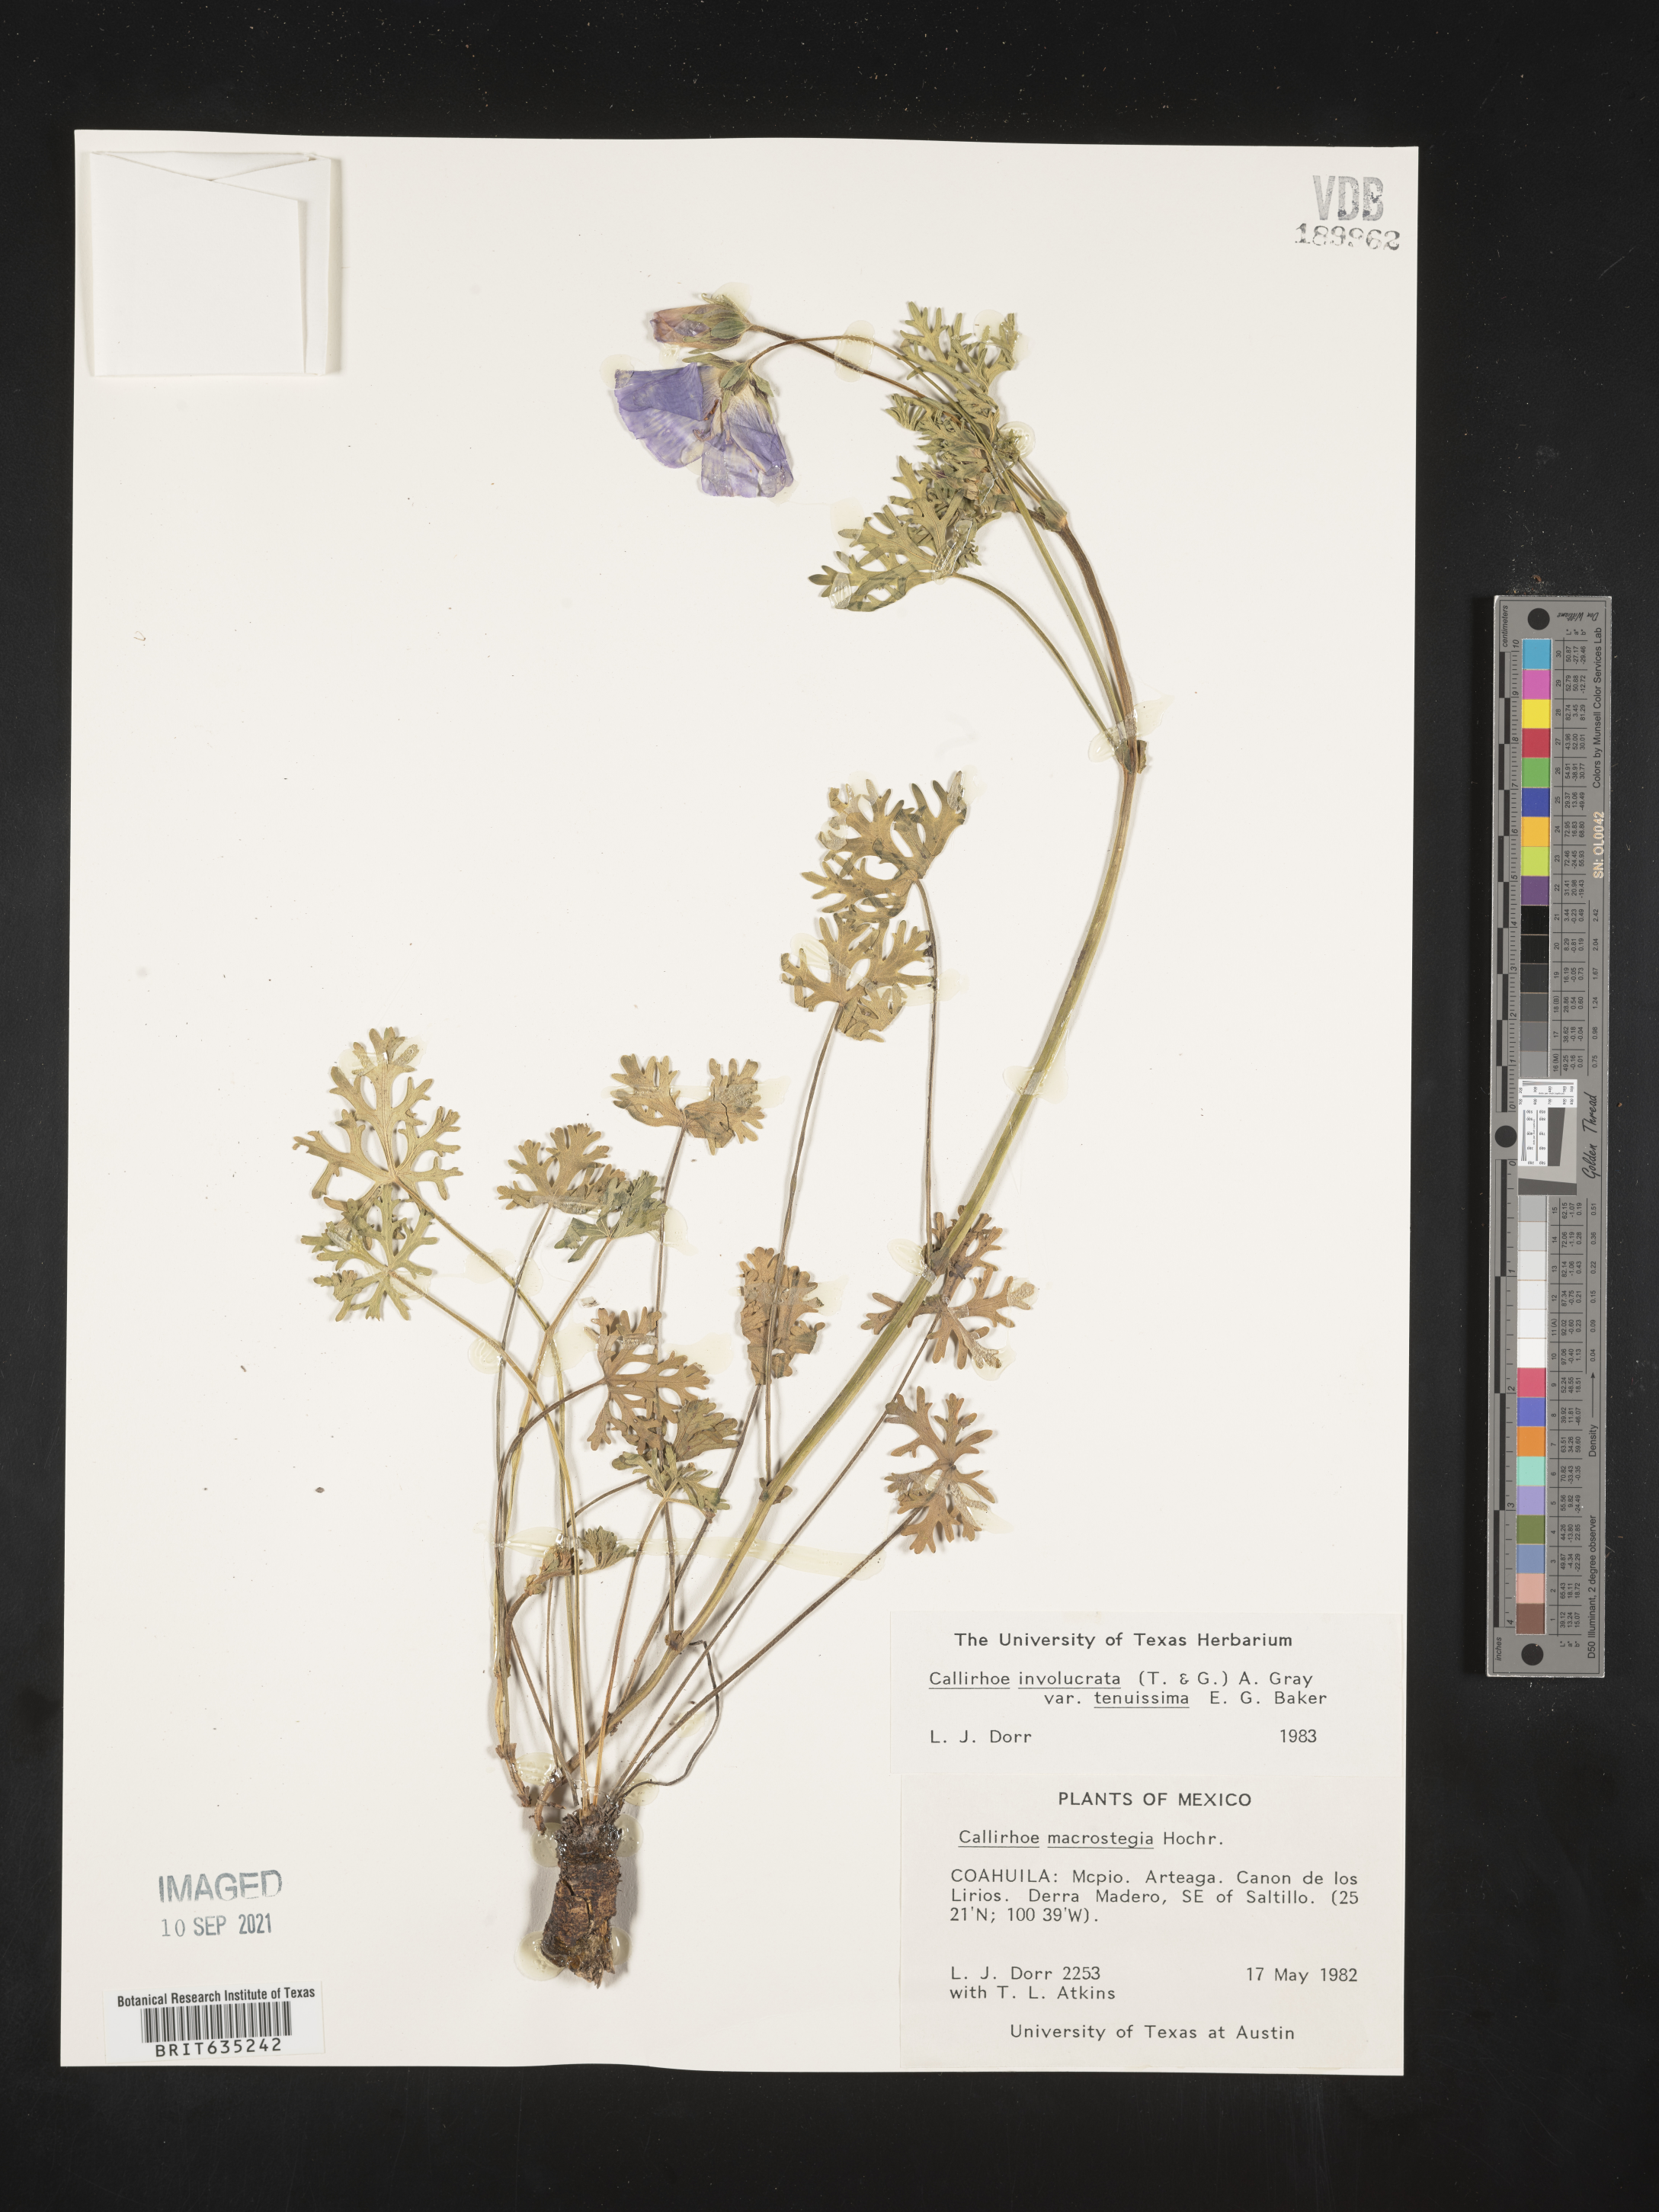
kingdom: Plantae
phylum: Tracheophyta
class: Magnoliopsida
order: Malvales
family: Malvaceae
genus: Herissantia
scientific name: Herissantia
